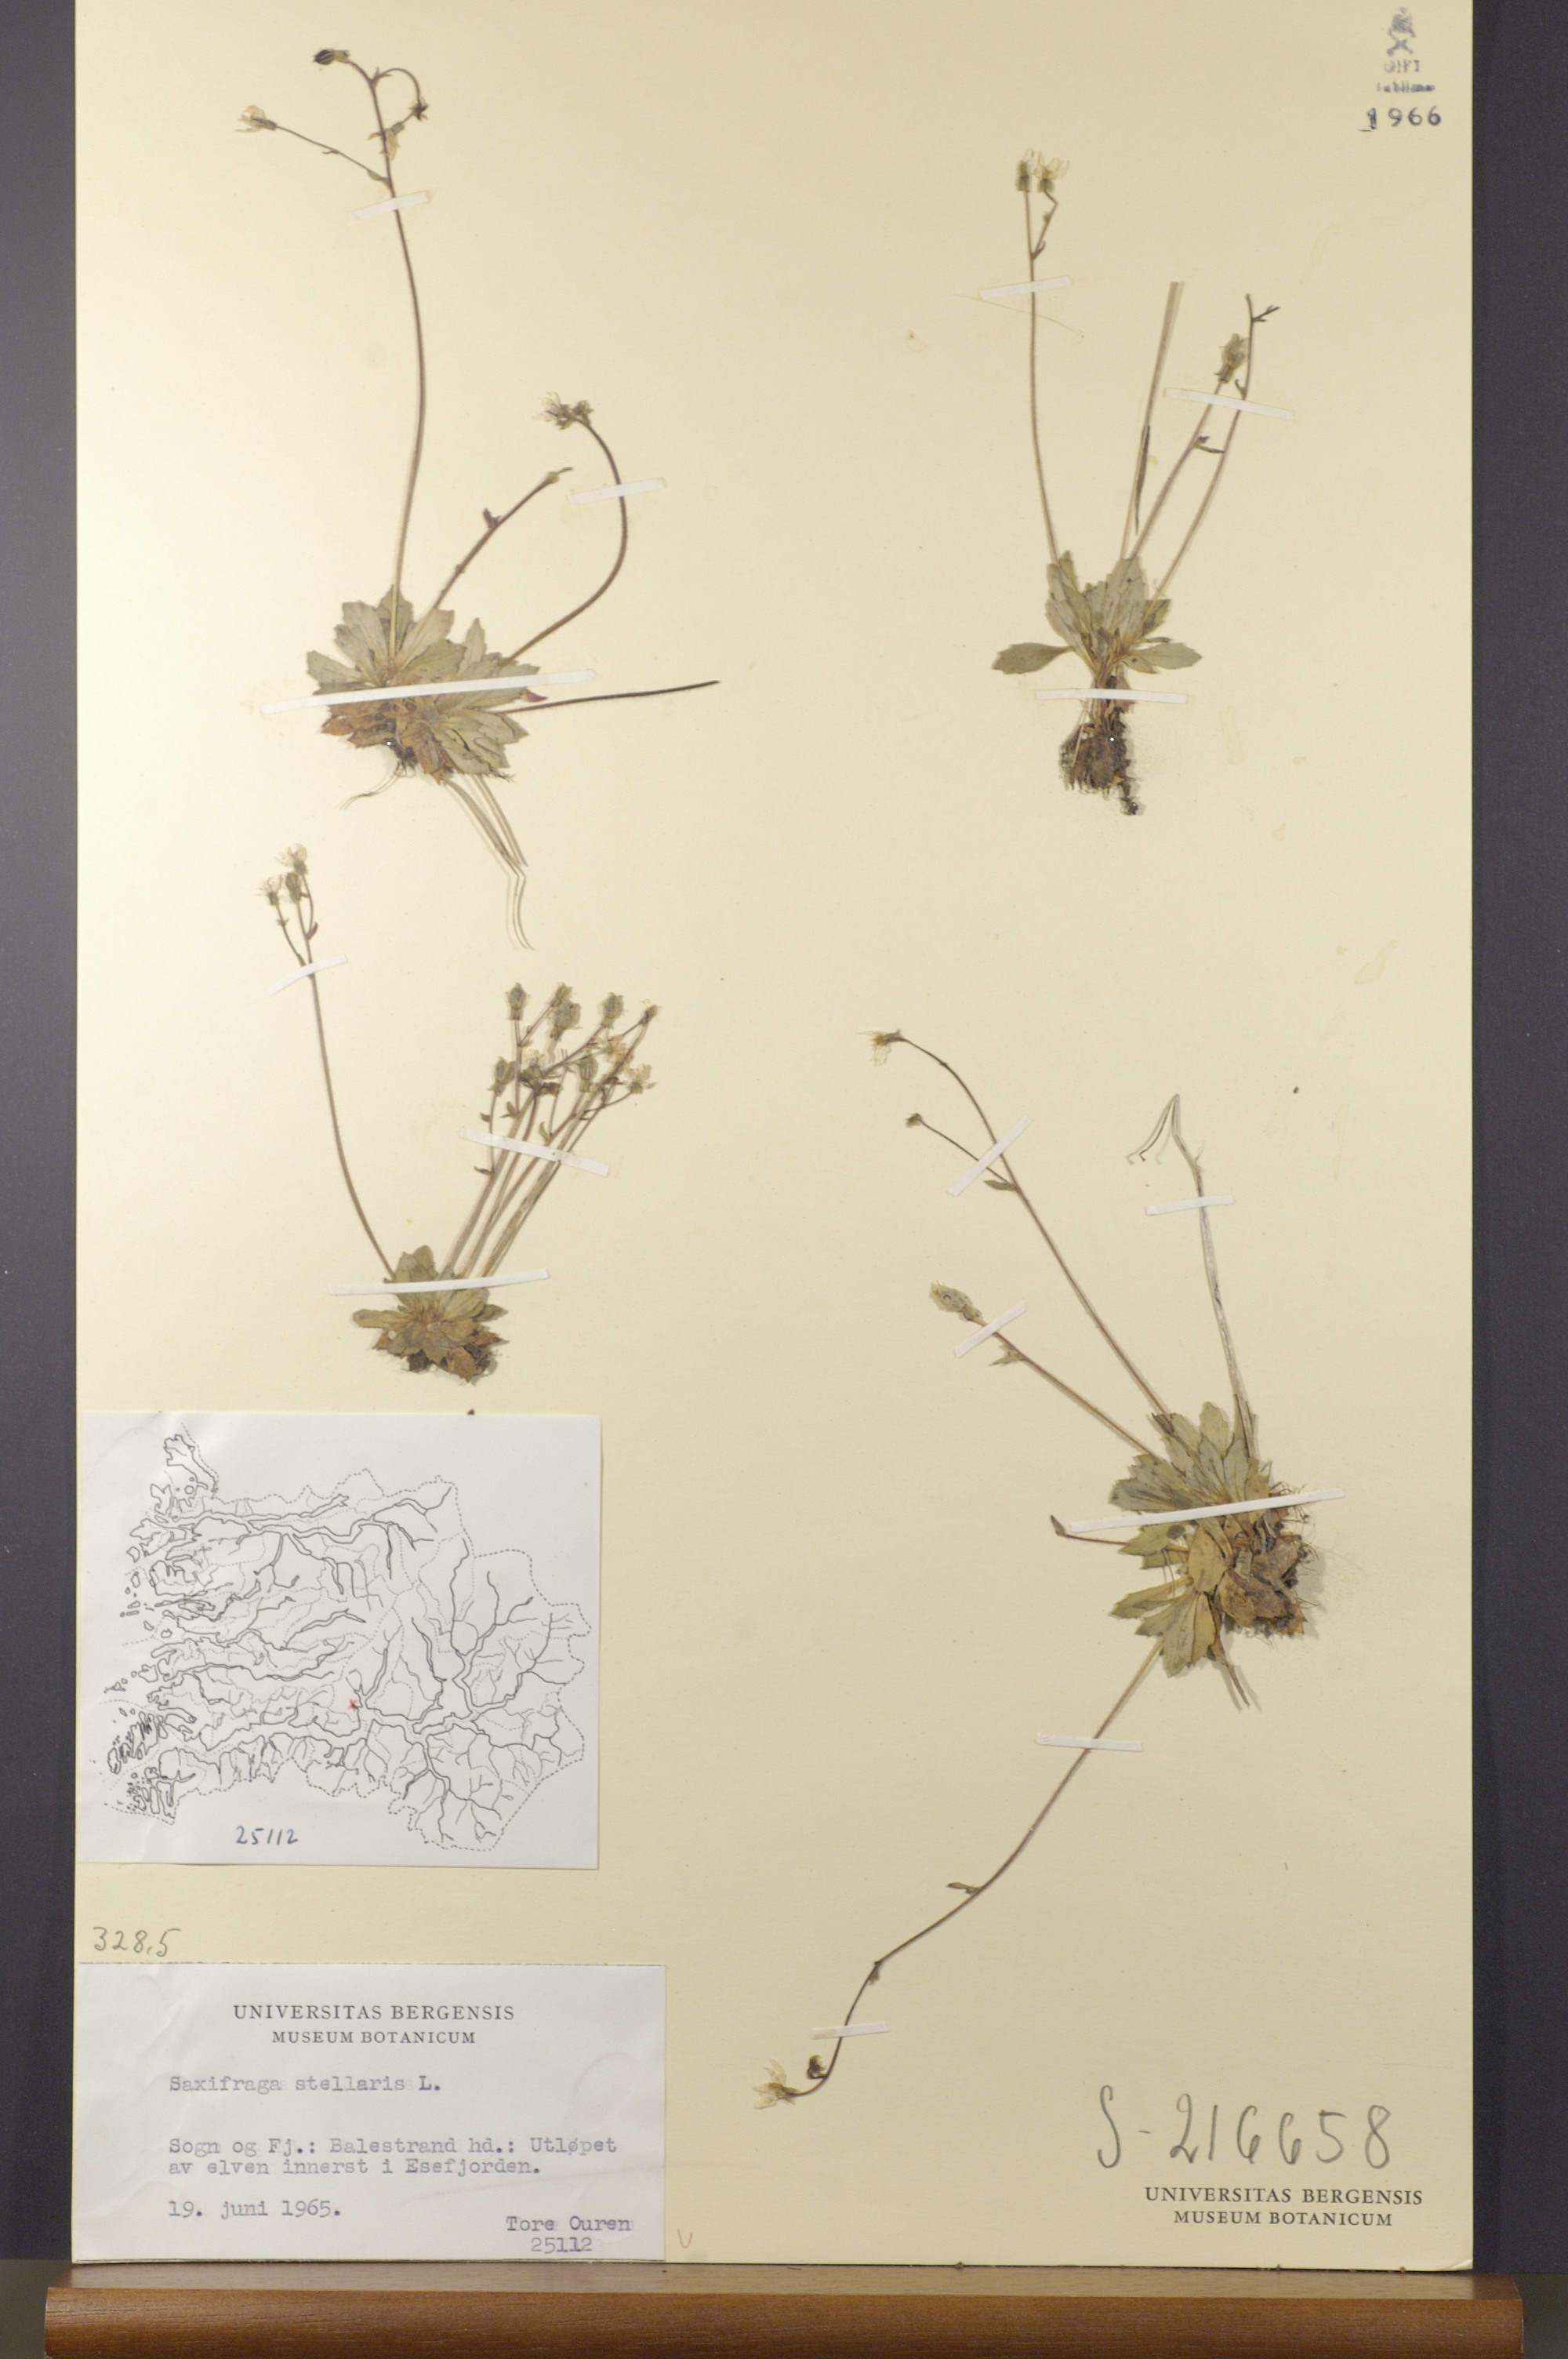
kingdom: Plantae
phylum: Tracheophyta
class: Magnoliopsida
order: Saxifragales
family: Saxifragaceae
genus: Micranthes
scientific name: Micranthes stellaris
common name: Starry saxifrage
